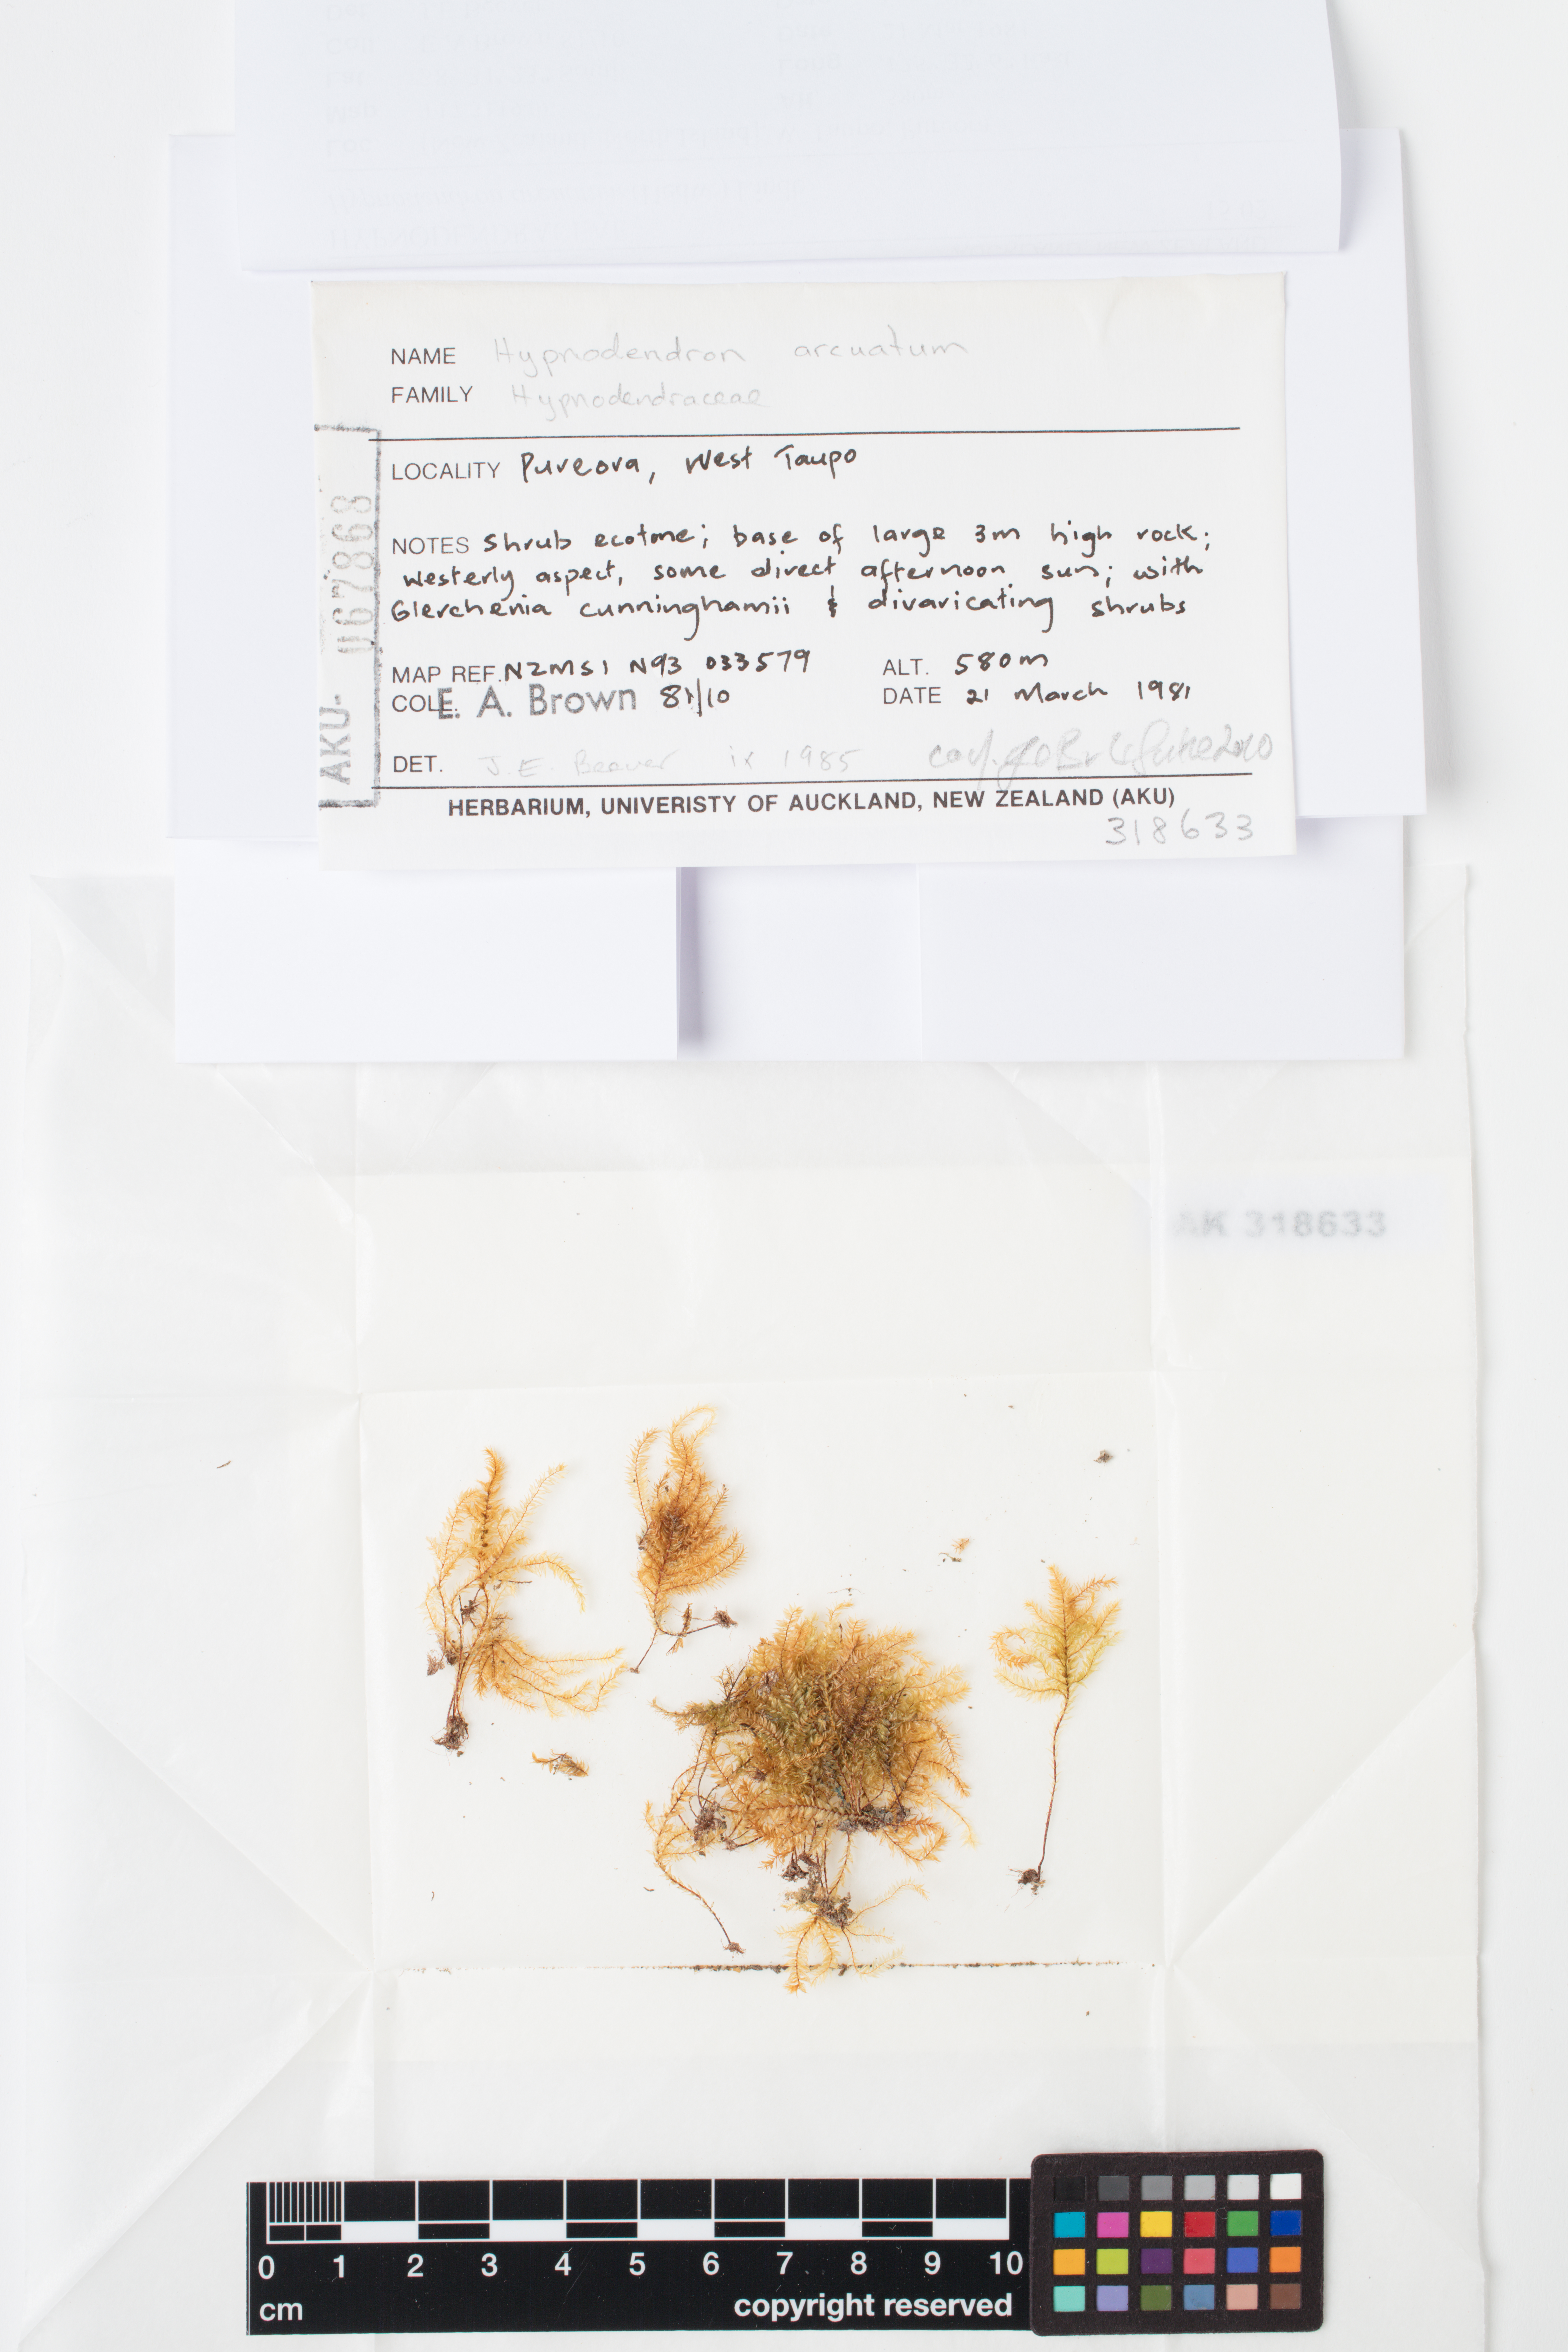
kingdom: Plantae
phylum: Bryophyta
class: Bryopsida
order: Hypnodendrales
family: Spiridentaceae
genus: Hypnodendron
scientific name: Hypnodendron arcuatum
